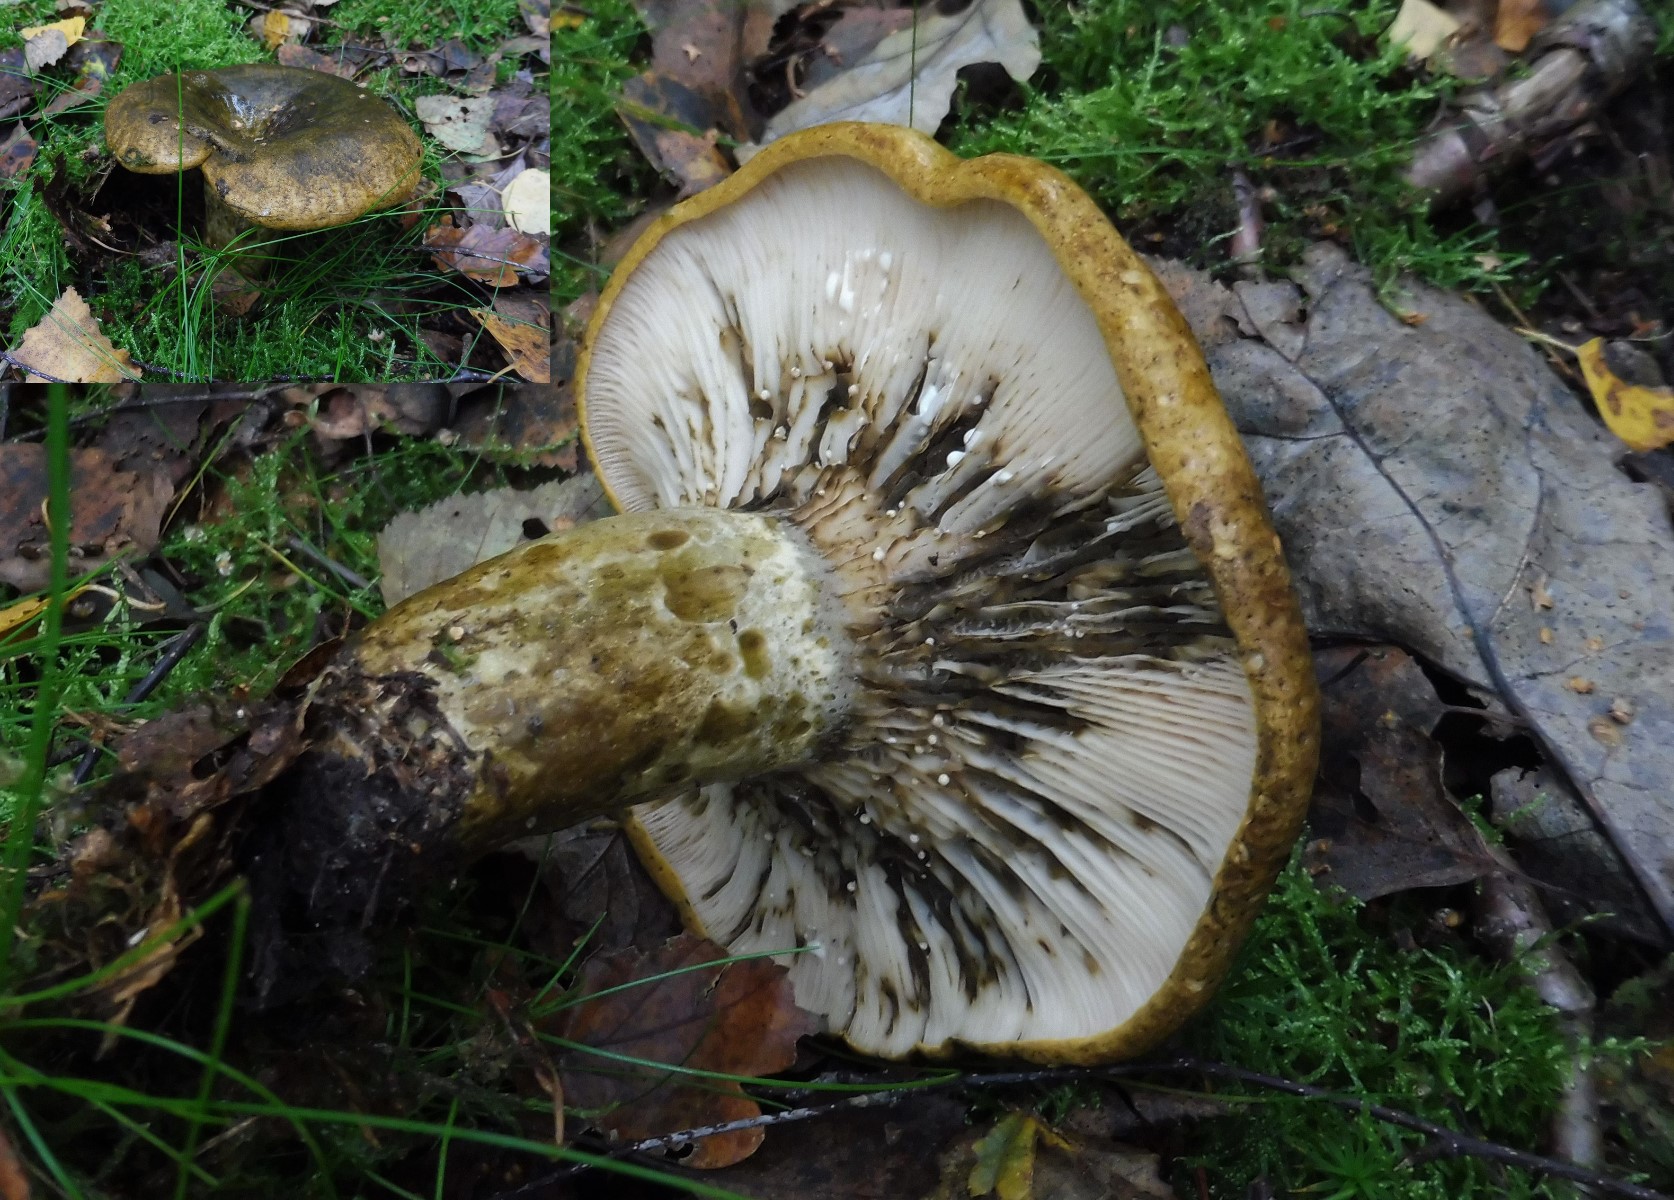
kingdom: Fungi
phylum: Basidiomycota
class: Agaricomycetes
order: Russulales
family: Russulaceae
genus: Lactarius
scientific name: Lactarius necator
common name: manddraber-mælkehat
